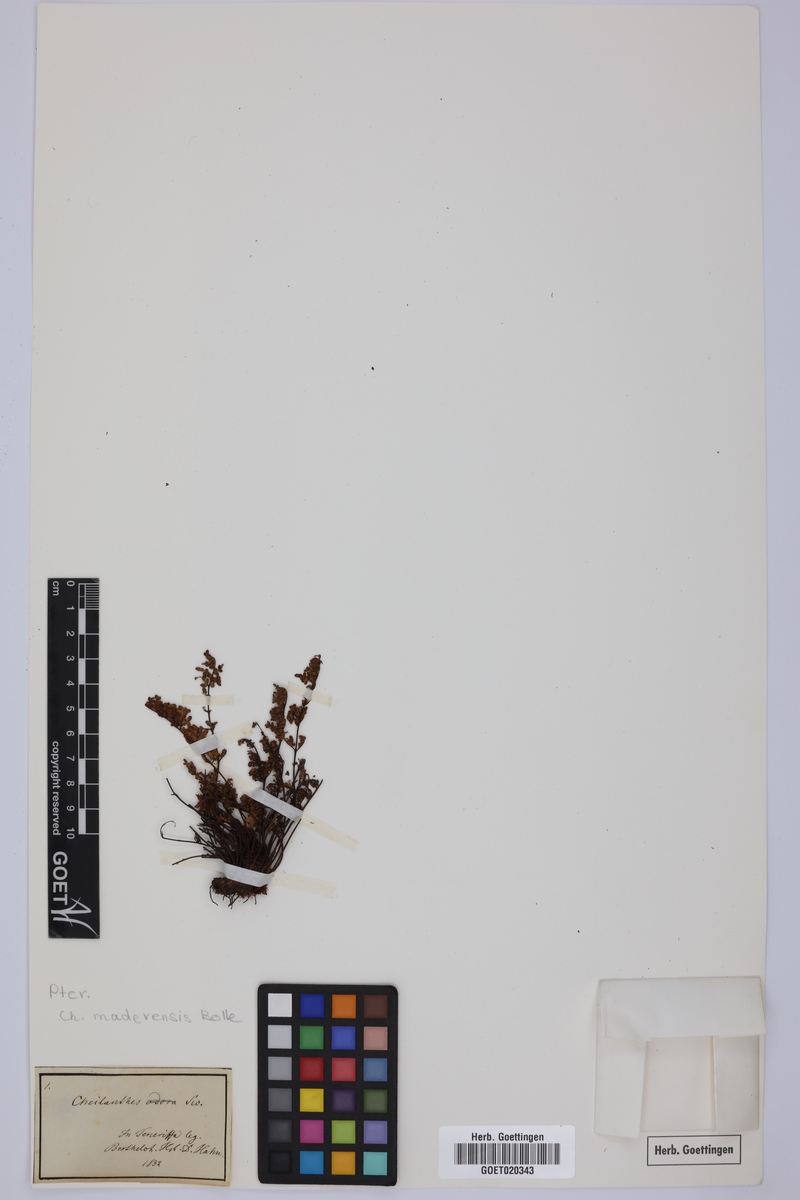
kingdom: Plantae
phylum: Tracheophyta
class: Polypodiopsida
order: Polypodiales
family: Pteridaceae
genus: Oeosporangium
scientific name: Oeosporangium pteridioides
